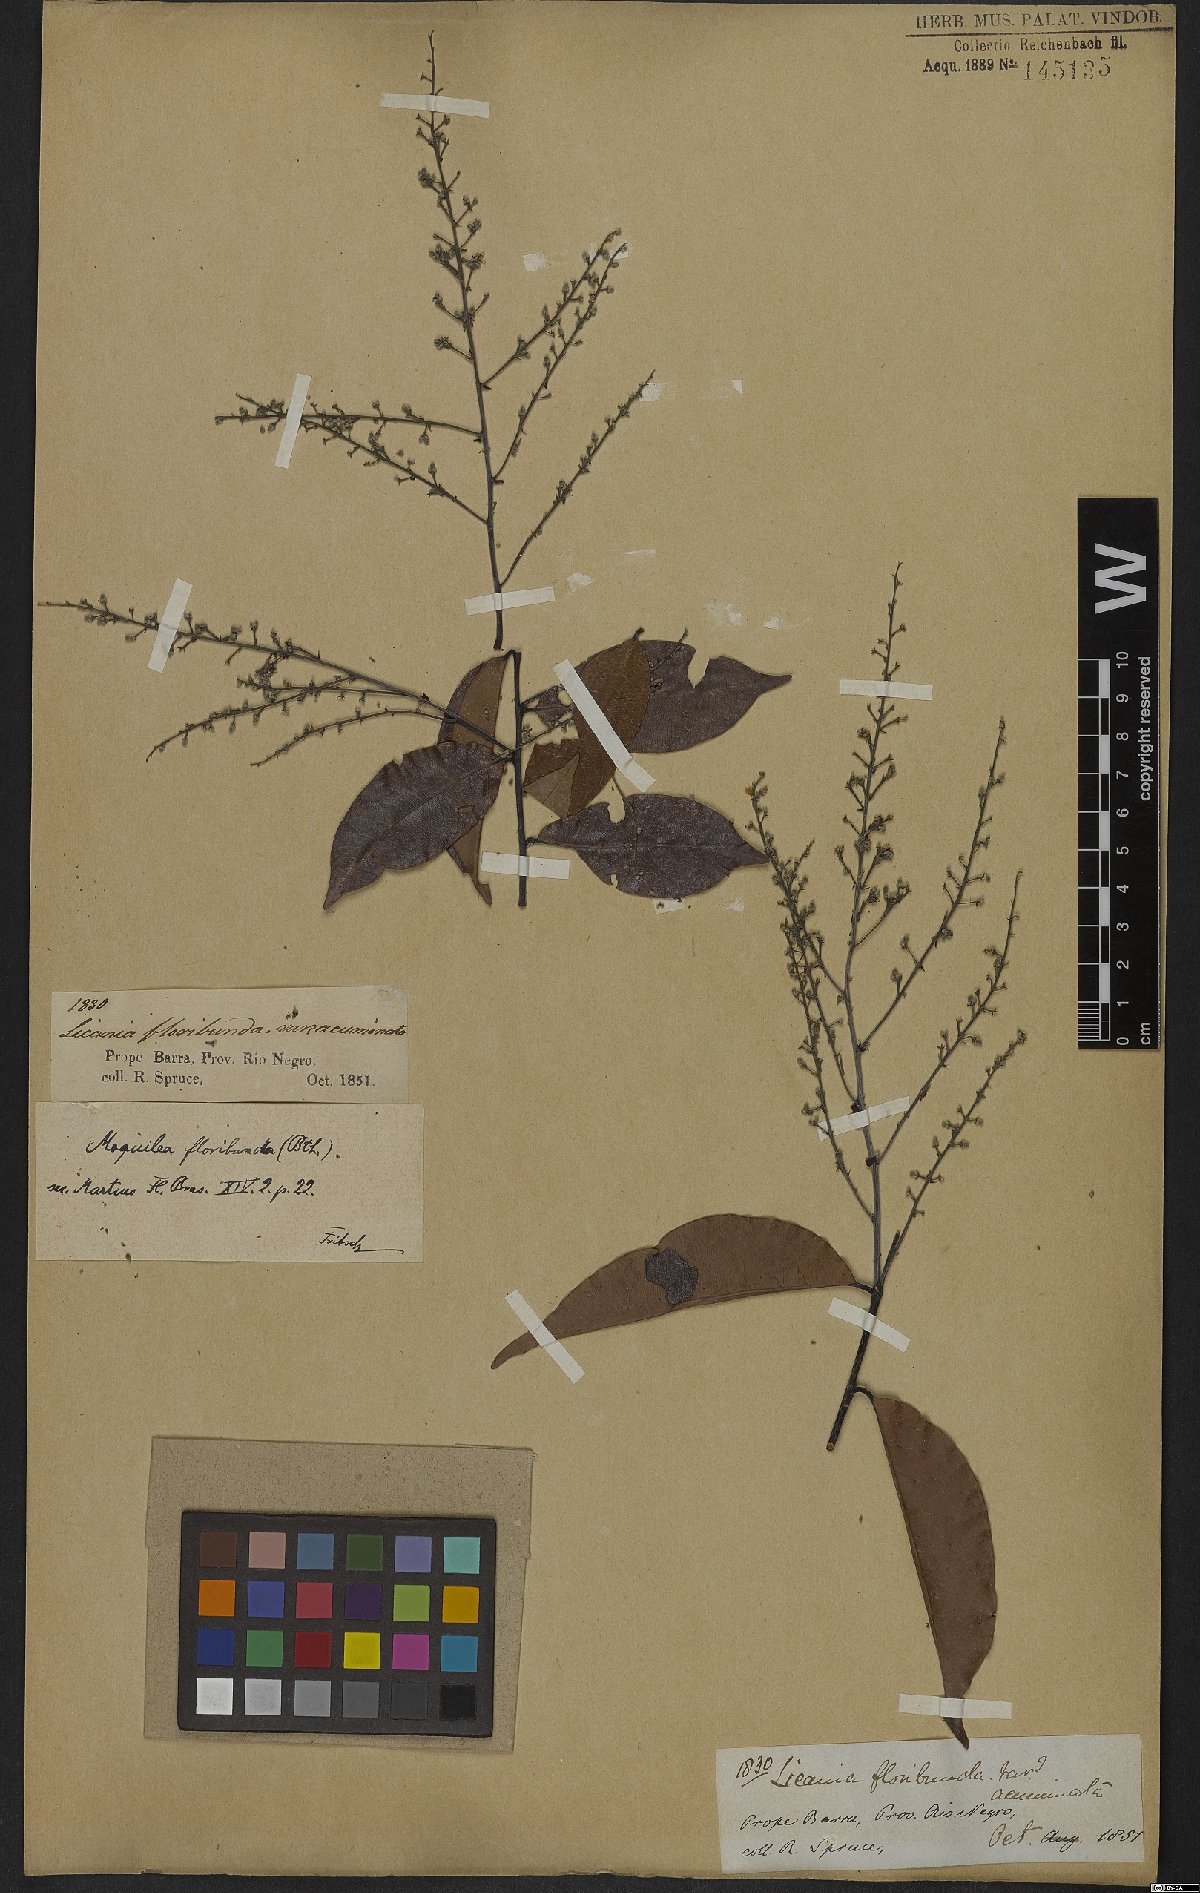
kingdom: Plantae
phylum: Tracheophyta
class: Magnoliopsida
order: Malpighiales
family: Chrysobalanaceae
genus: Leptobalanus
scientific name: Leptobalanus apetalus
